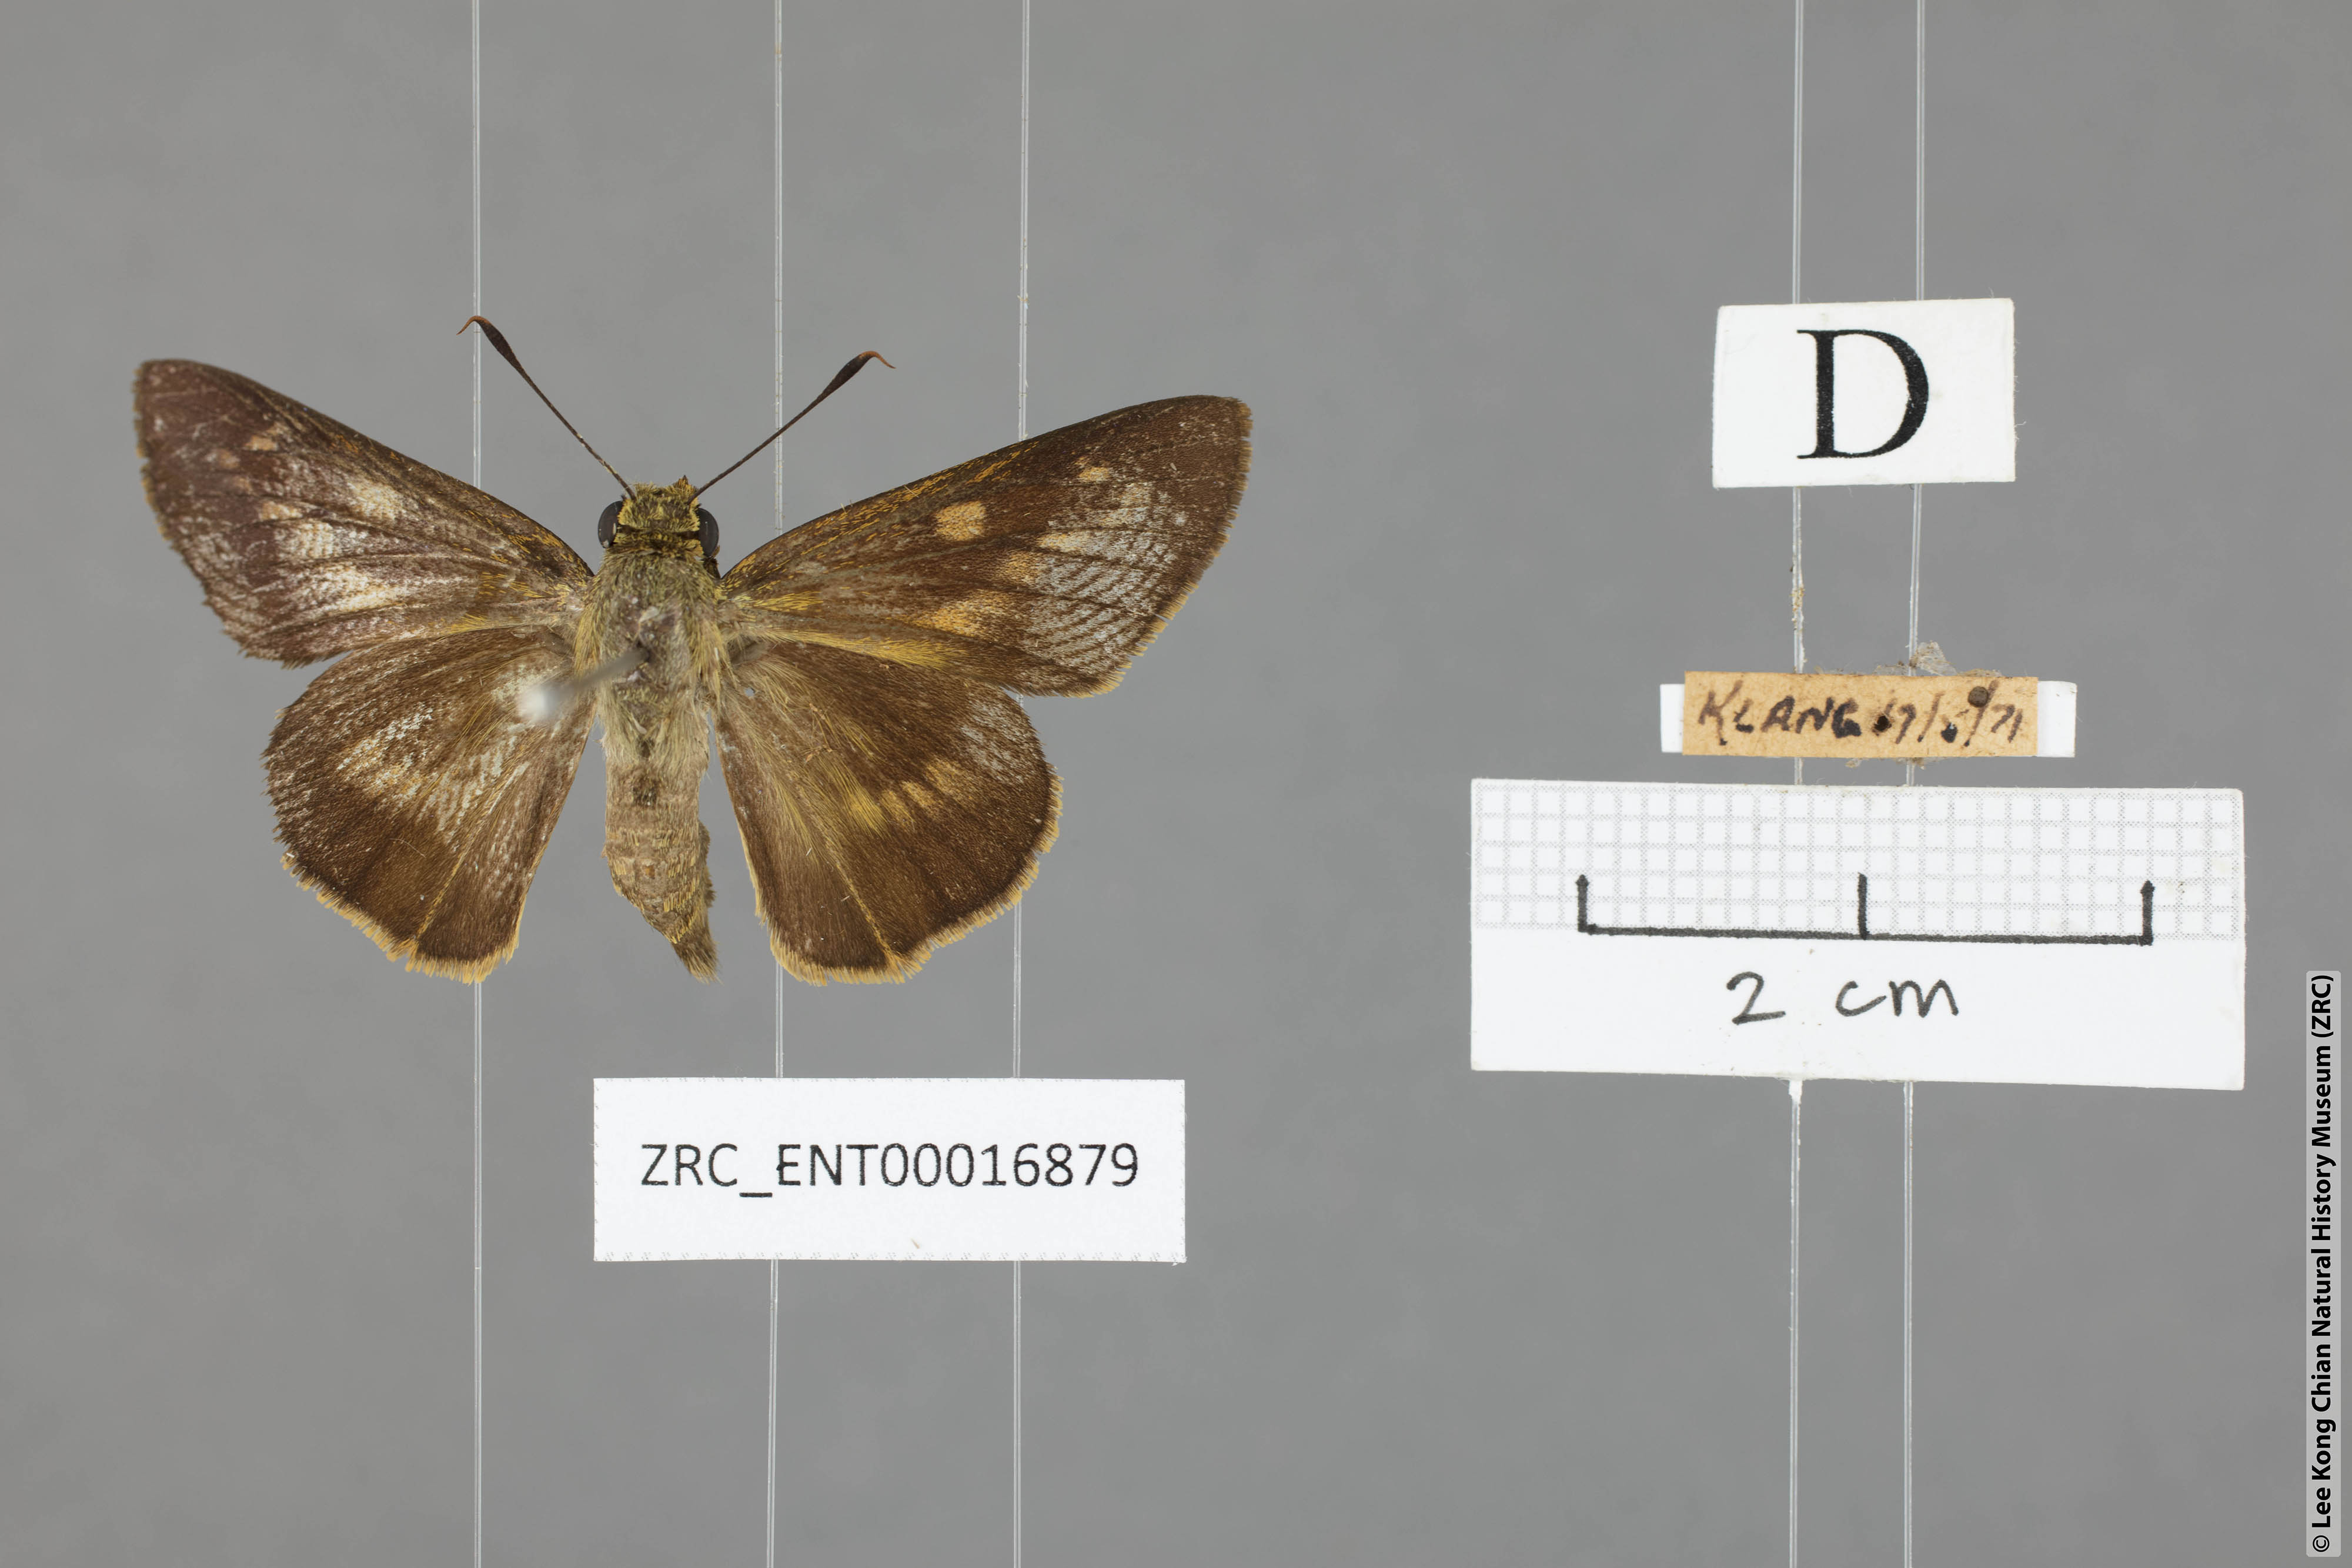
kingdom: Animalia
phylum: Arthropoda
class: Insecta
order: Lepidoptera
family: Hesperiidae
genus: Cephrenes
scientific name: Cephrenes
